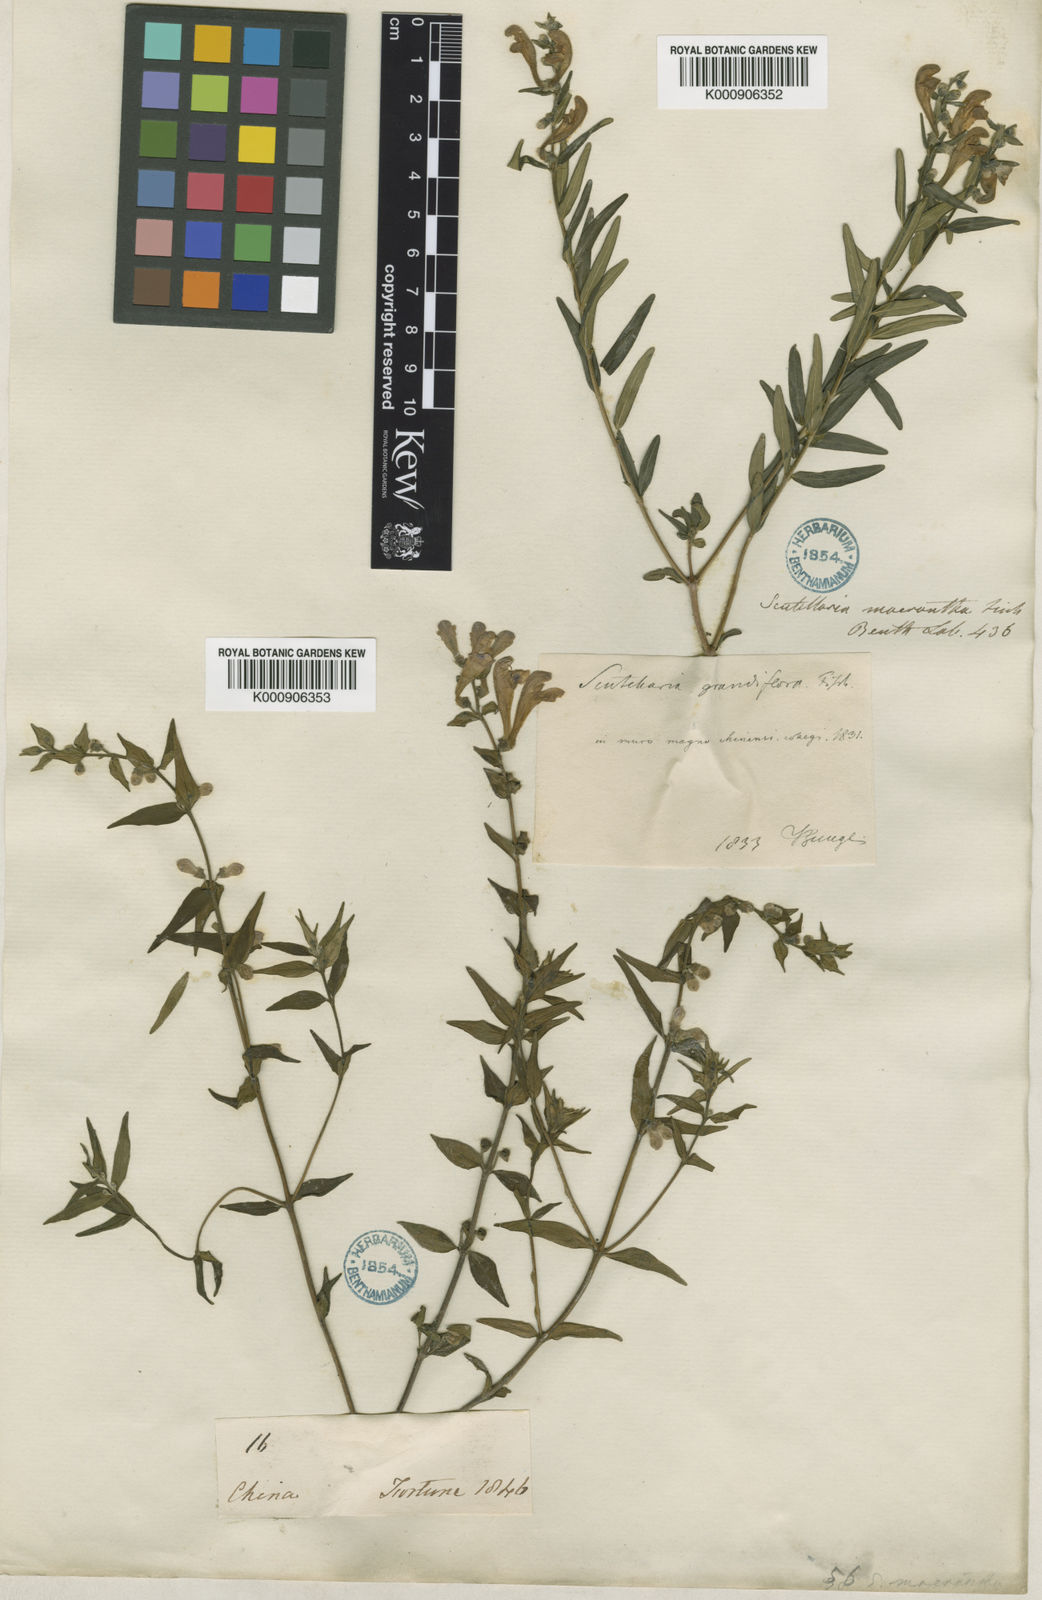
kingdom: Plantae
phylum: Tracheophyta
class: Magnoliopsida
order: Lamiales
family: Lamiaceae
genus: Scutellaria
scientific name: Scutellaria baicalensis
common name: Baikal skullcap
